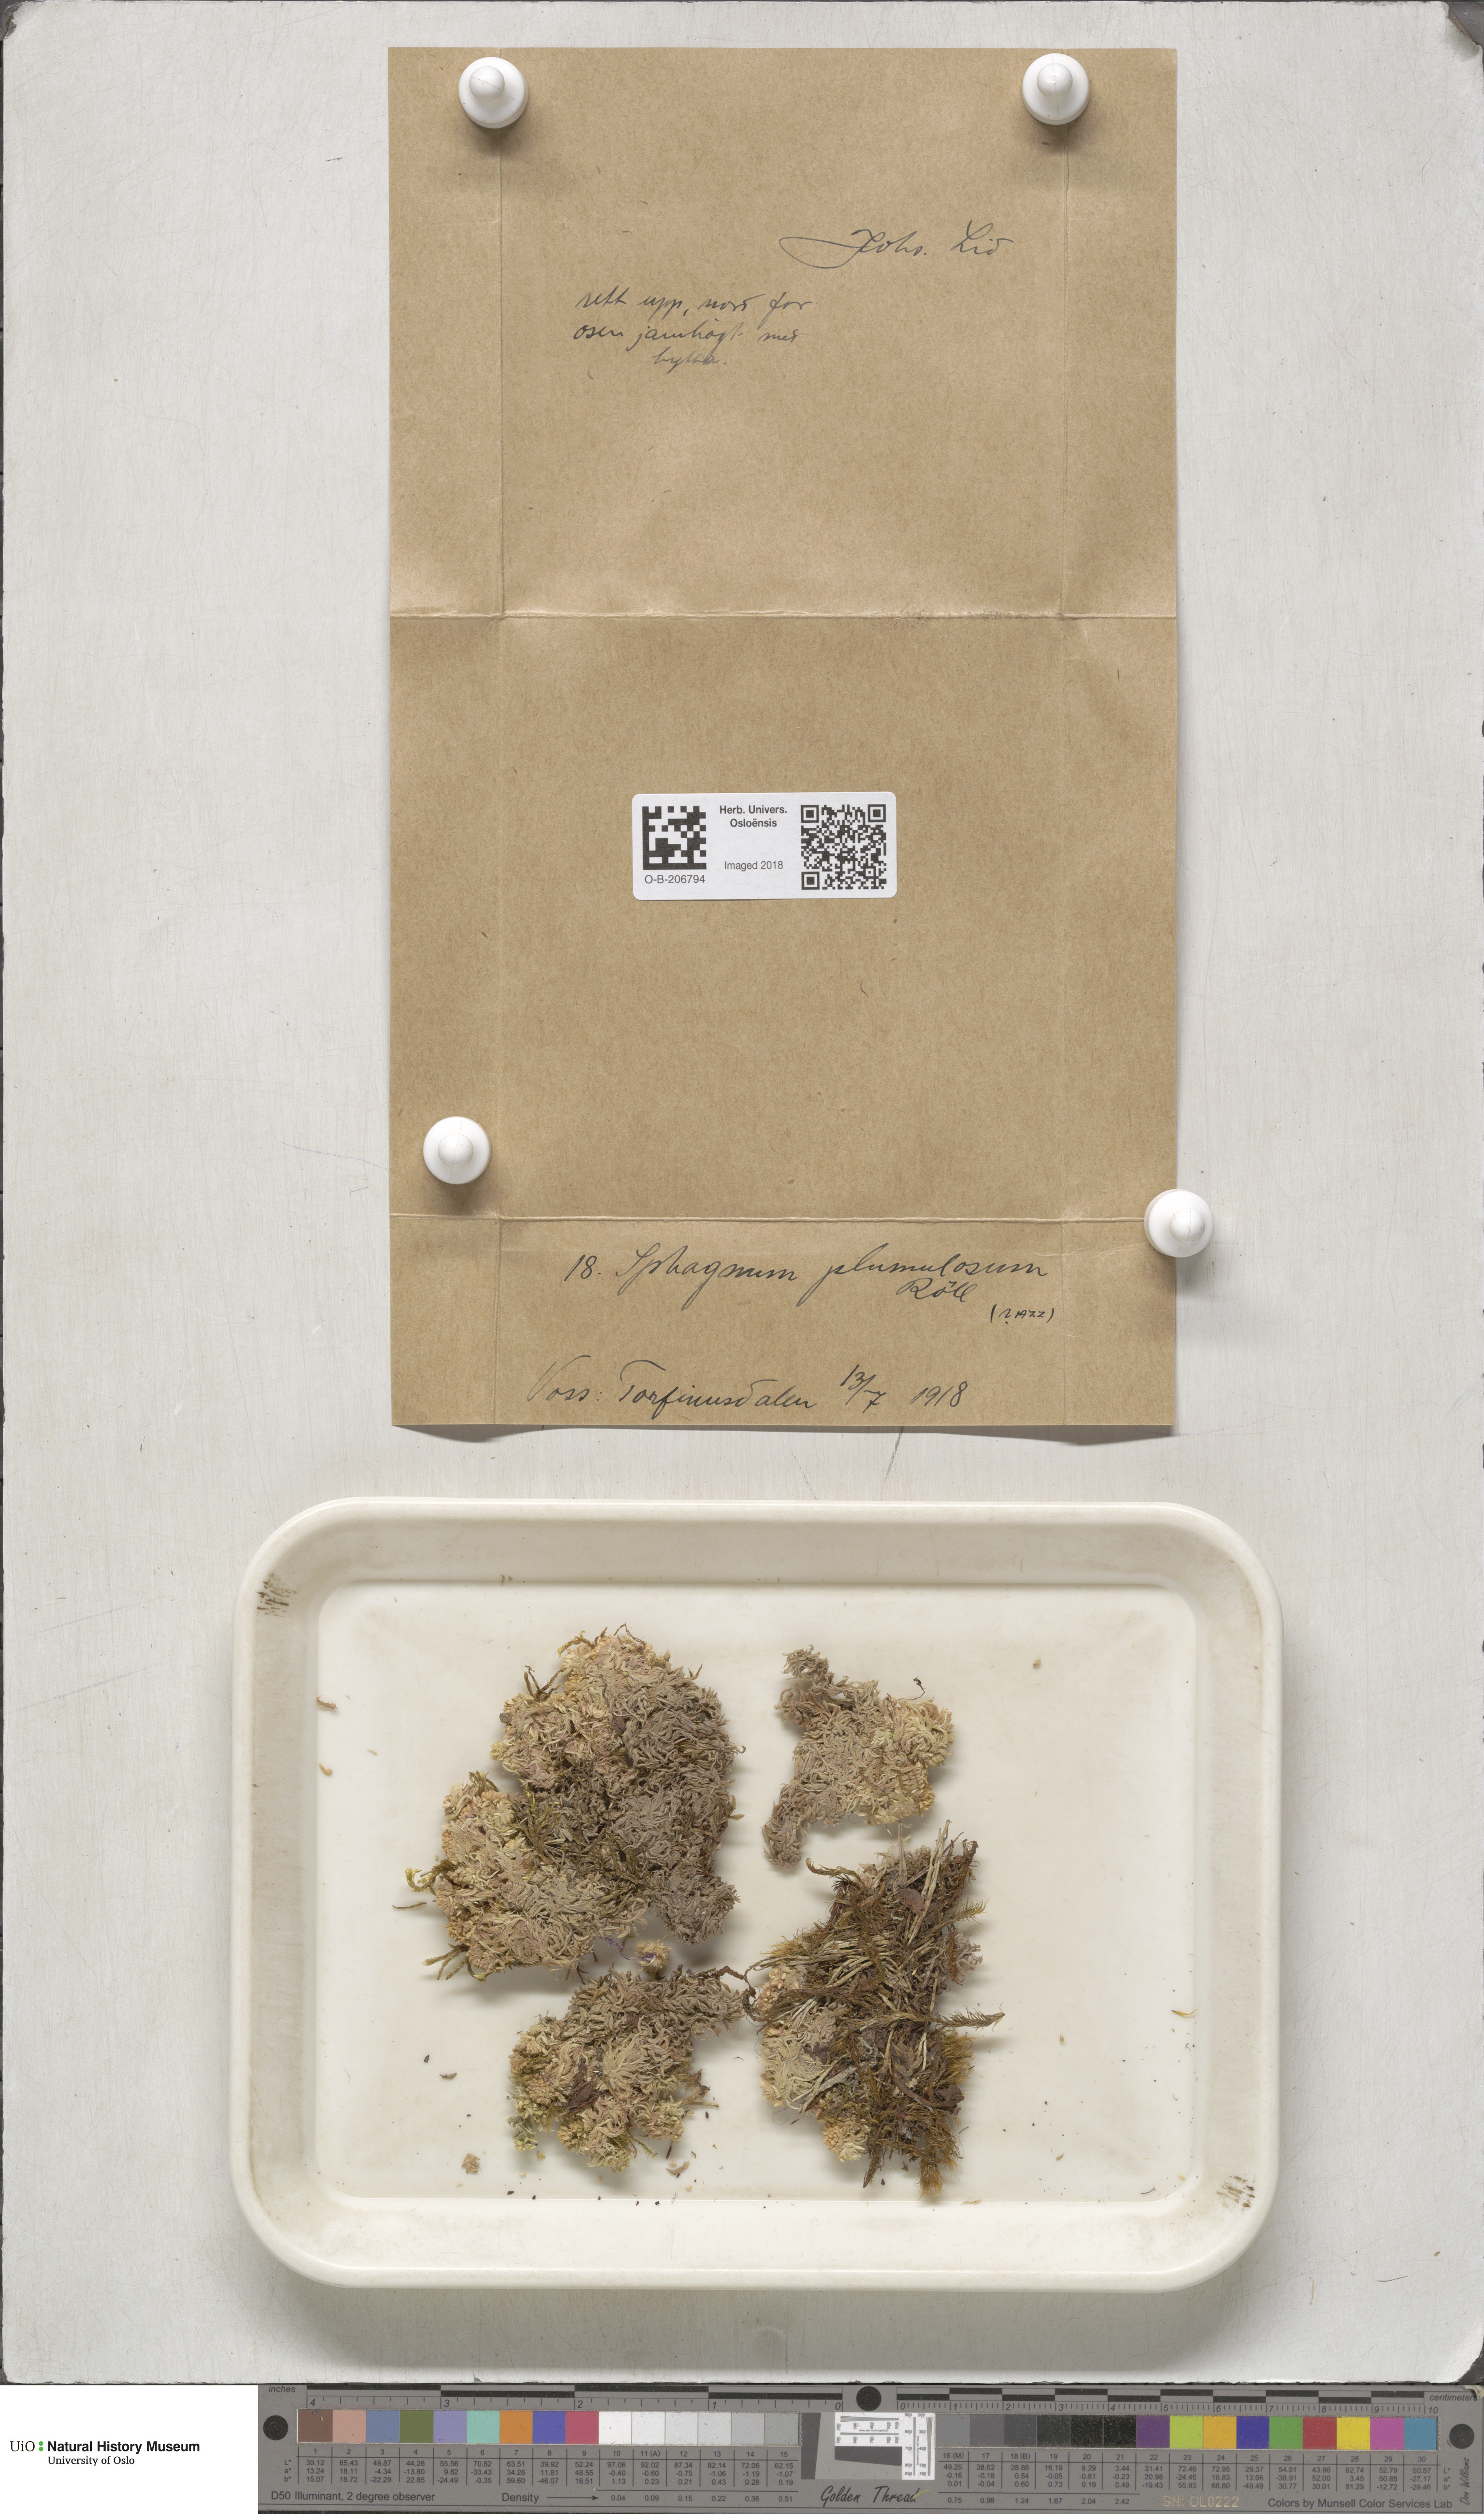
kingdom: Plantae
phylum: Bryophyta
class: Sphagnopsida
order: Sphagnales
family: Sphagnaceae
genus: Sphagnum
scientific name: Sphagnum subnitens
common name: Lustrous bog-moss
